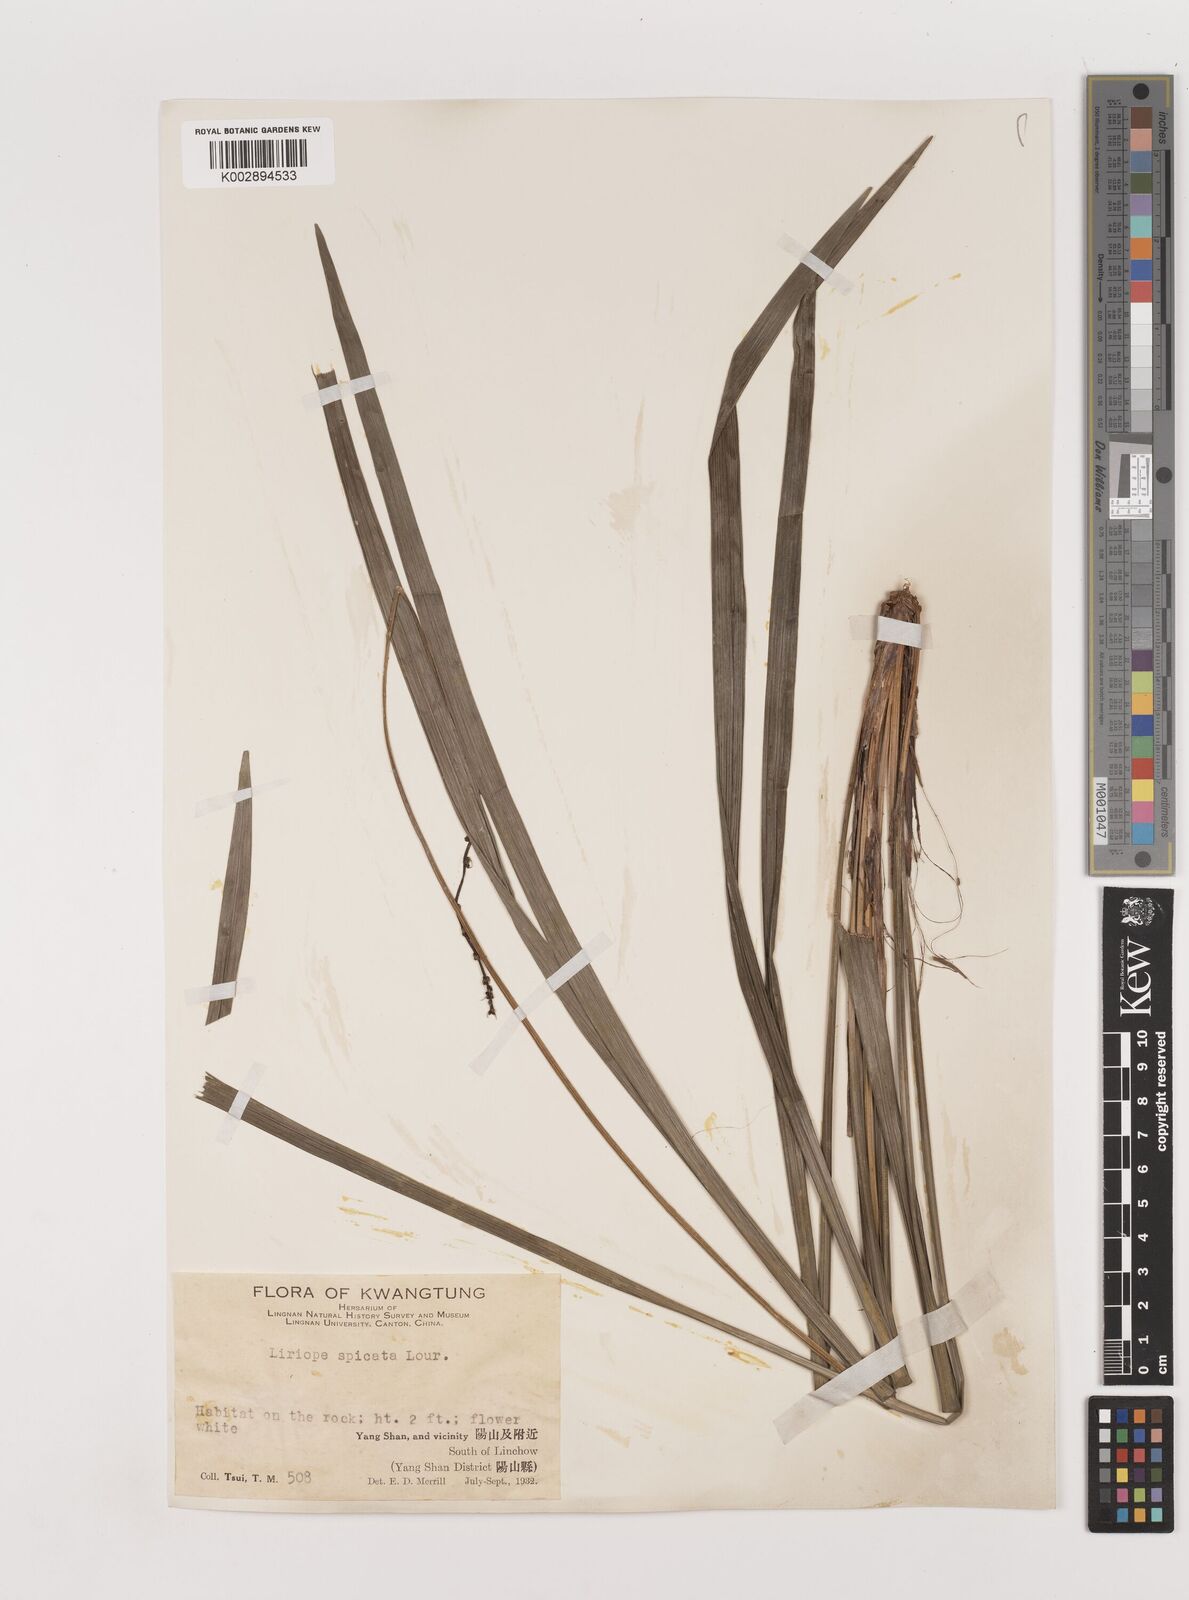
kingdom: Plantae
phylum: Tracheophyta
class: Liliopsida
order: Asparagales
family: Asparagaceae
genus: Liriope
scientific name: Liriope spicata
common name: Creeping liriope
